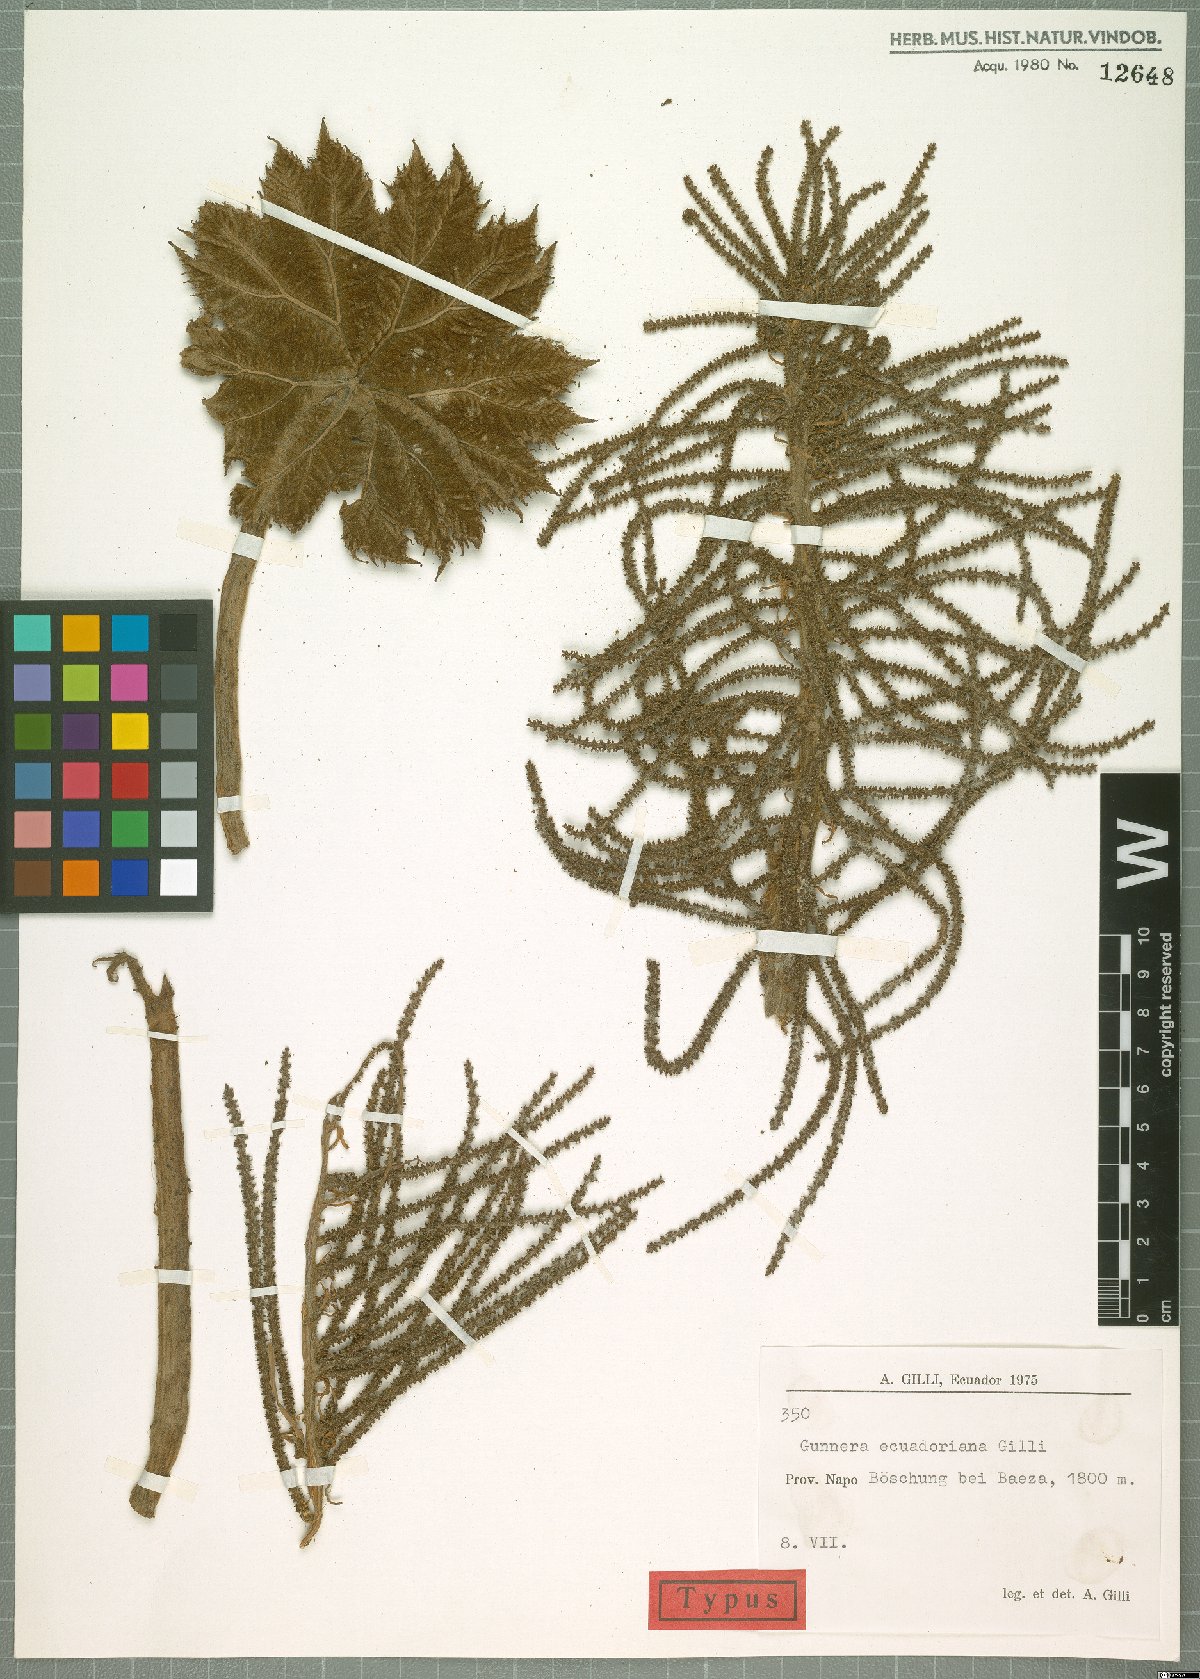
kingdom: Plantae
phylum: Tracheophyta
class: Magnoliopsida
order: Gunnerales
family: Gunneraceae
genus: Gunnera
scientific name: Gunnera brephogea
